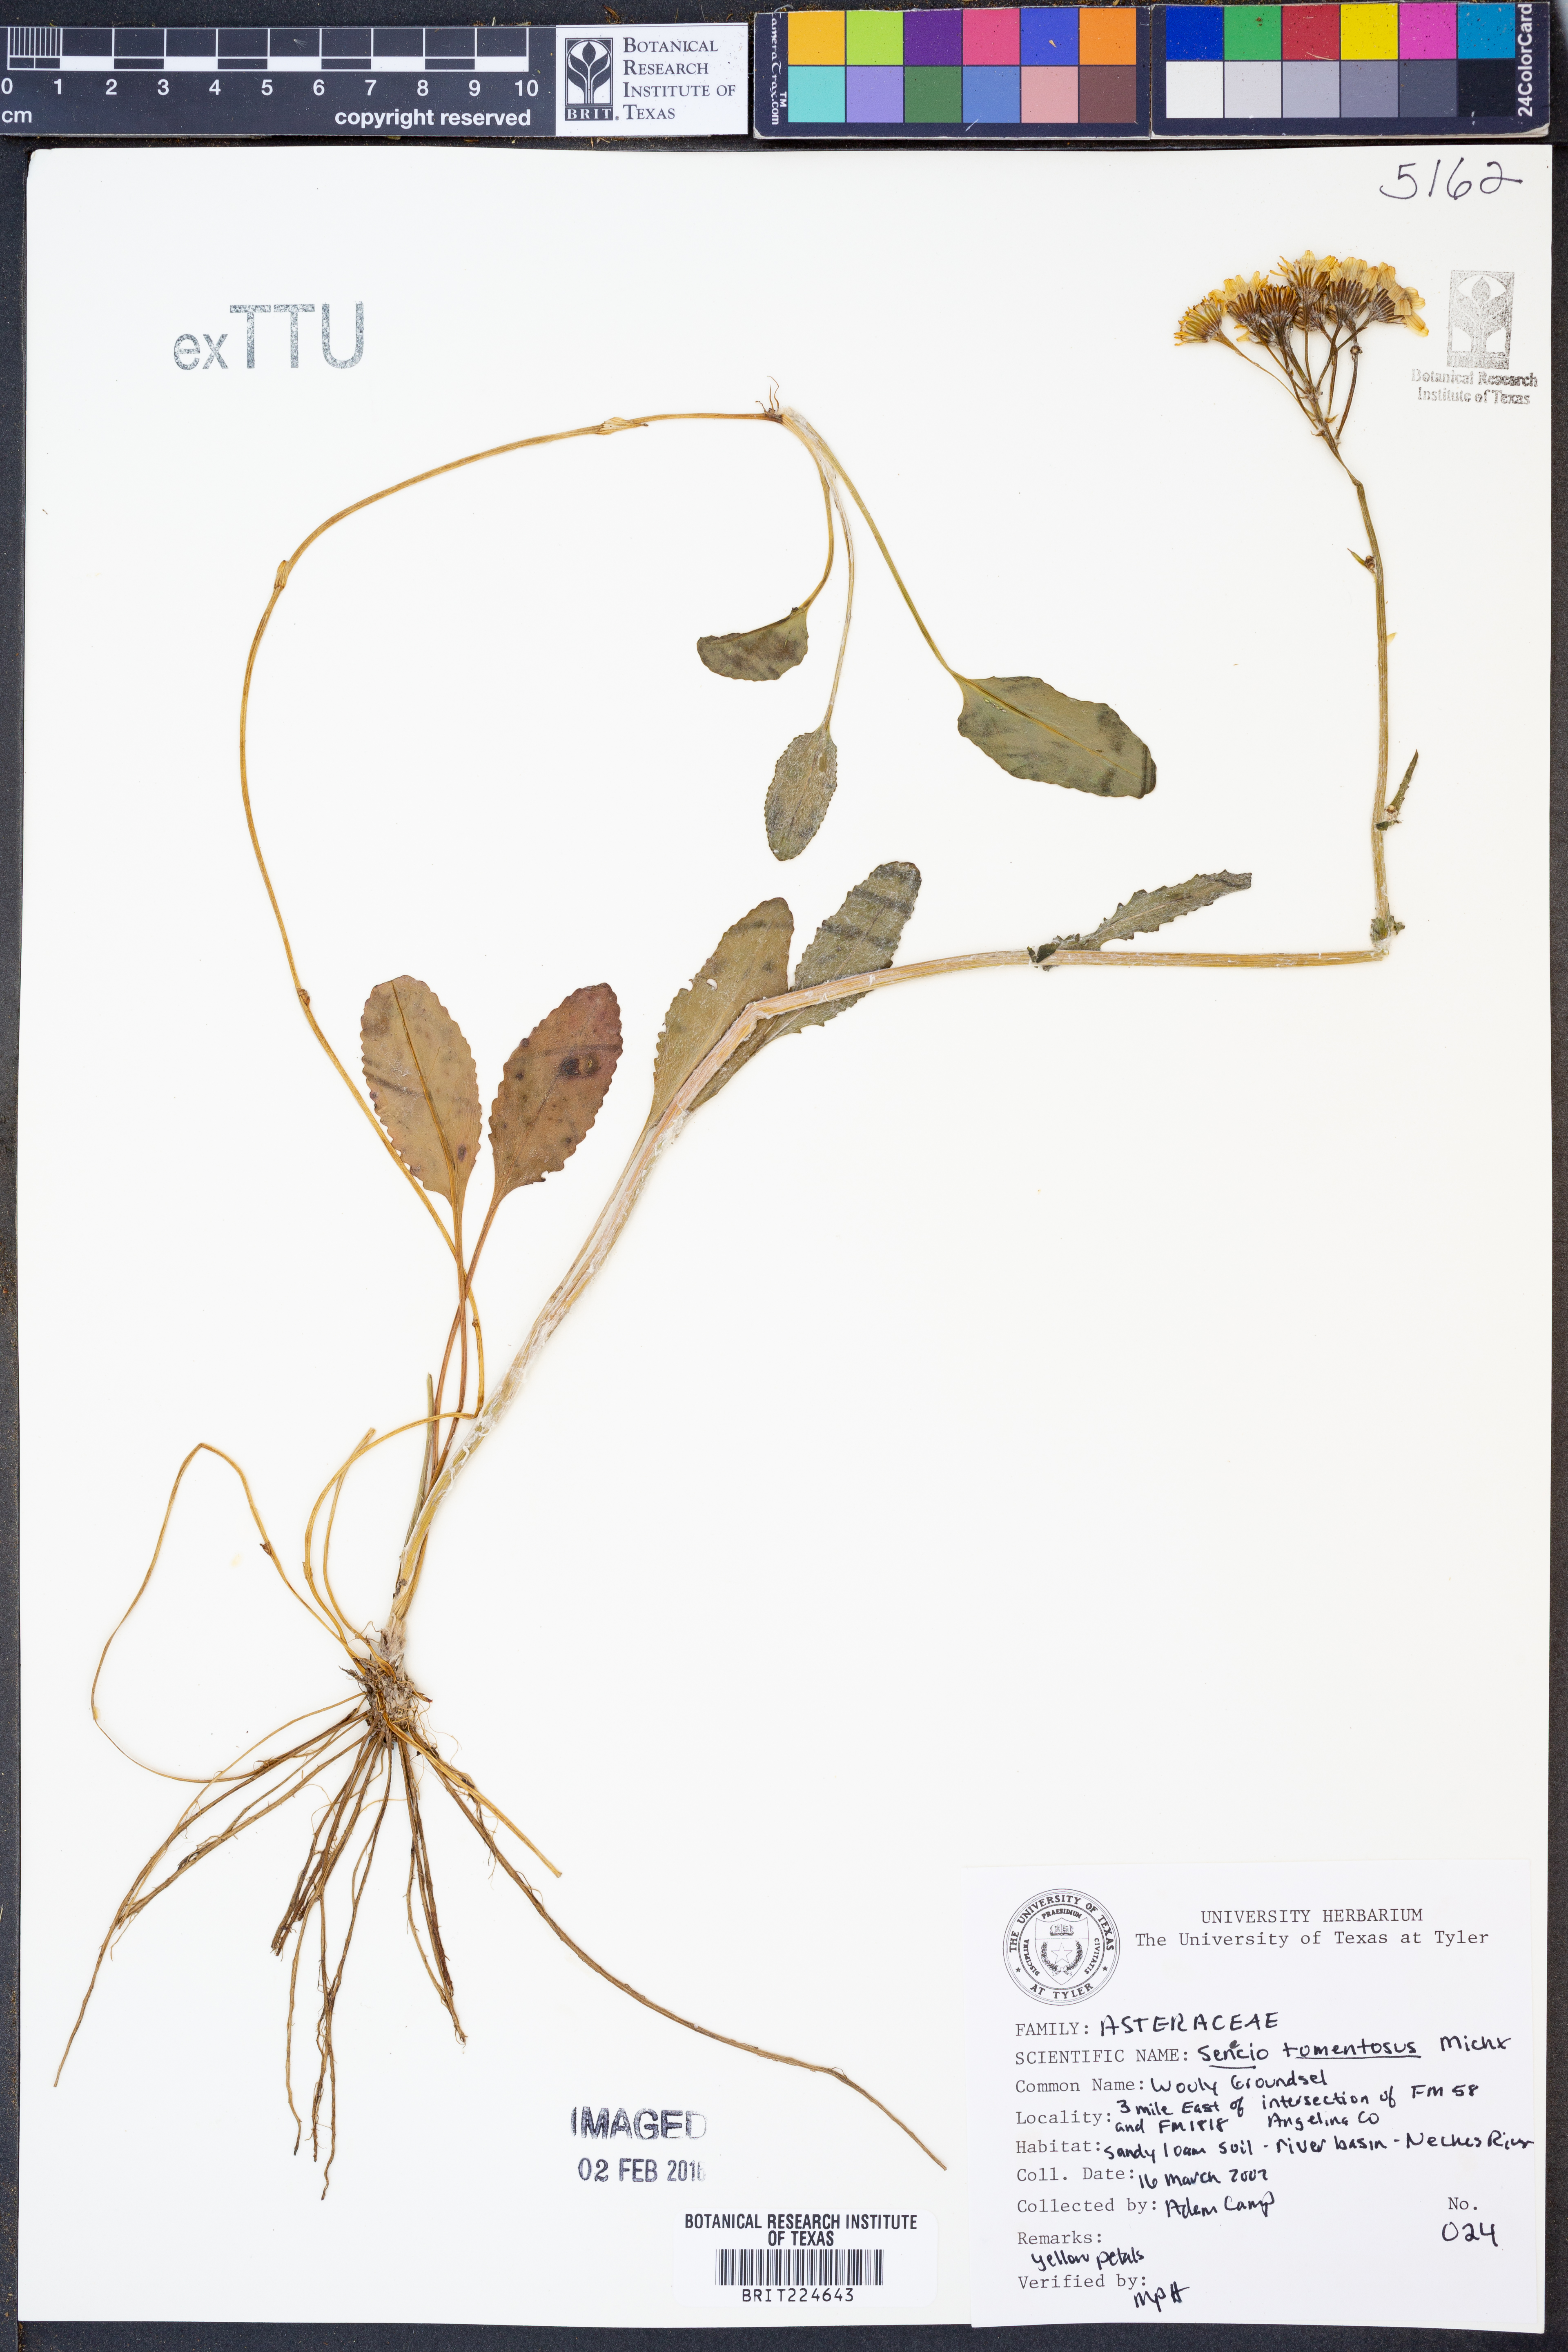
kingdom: Plantae
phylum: Tracheophyta
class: Magnoliopsida
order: Asterales
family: Asteraceae
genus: Senecio
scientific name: Senecio cinerascens
